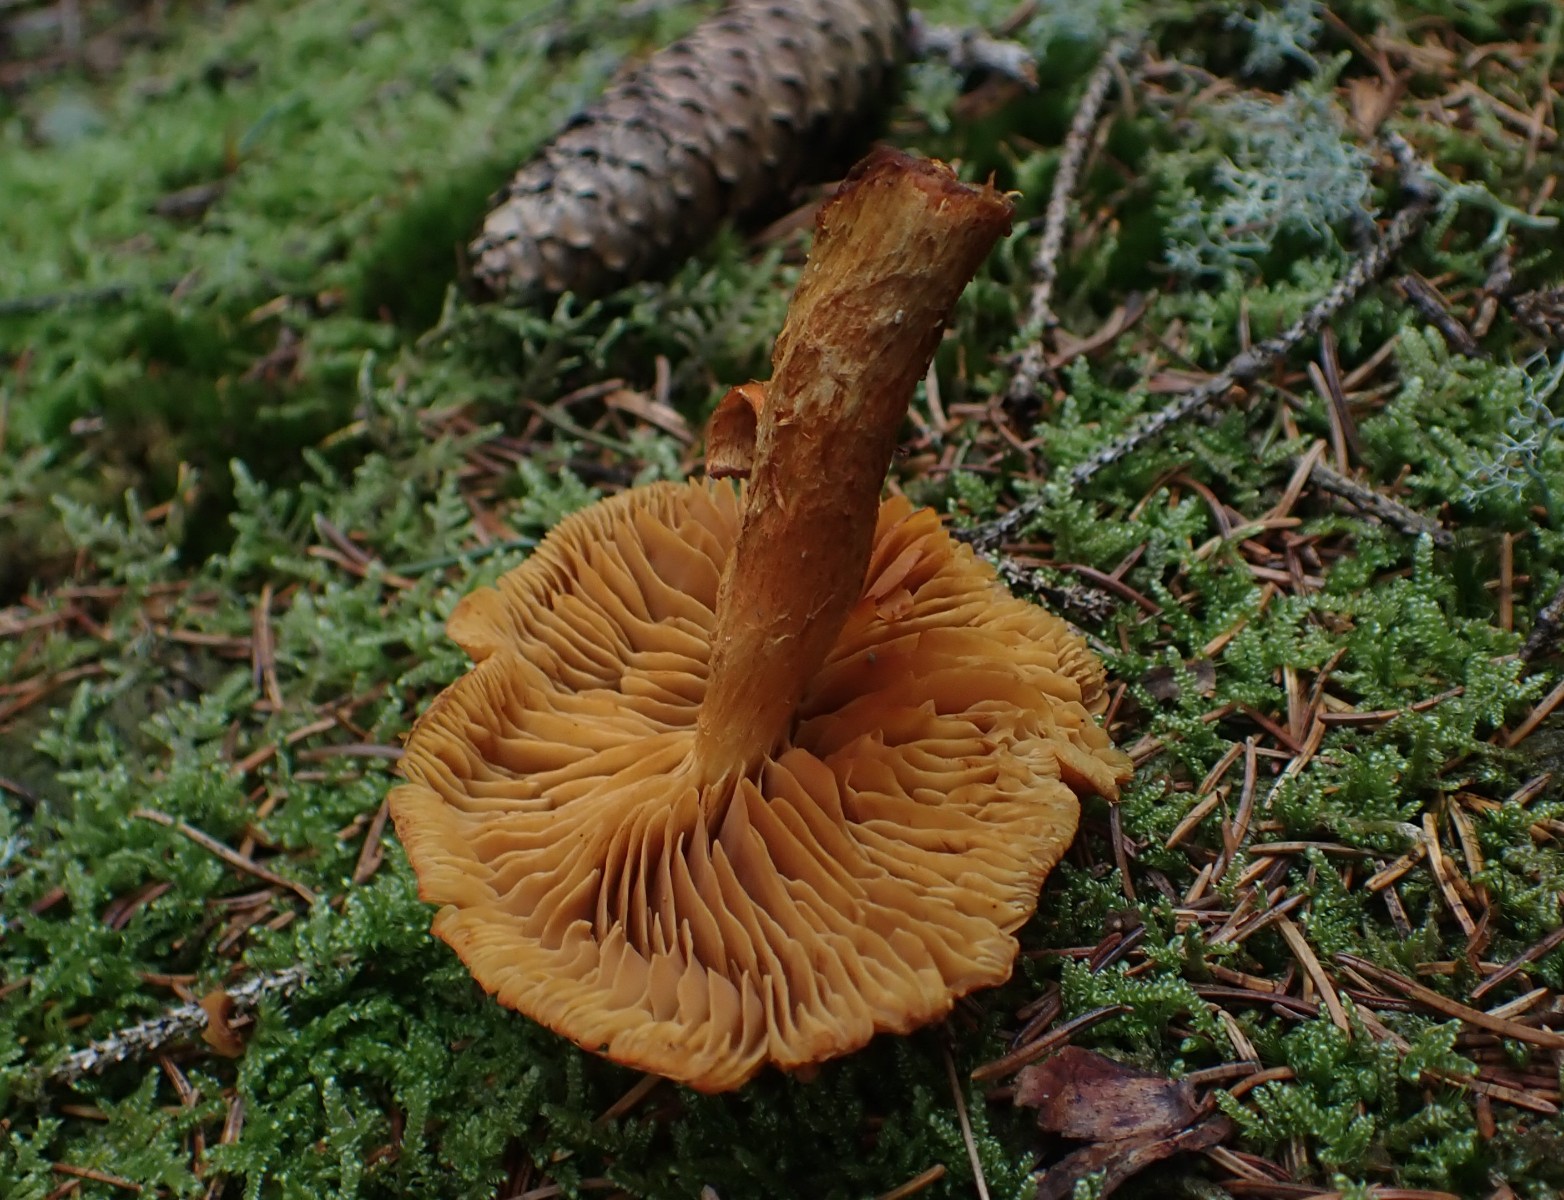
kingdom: Fungi
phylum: Basidiomycota
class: Agaricomycetes
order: Agaricales
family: Cortinariaceae
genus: Aureonarius
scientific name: Aureonarius limonius
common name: orangegul slørhat
